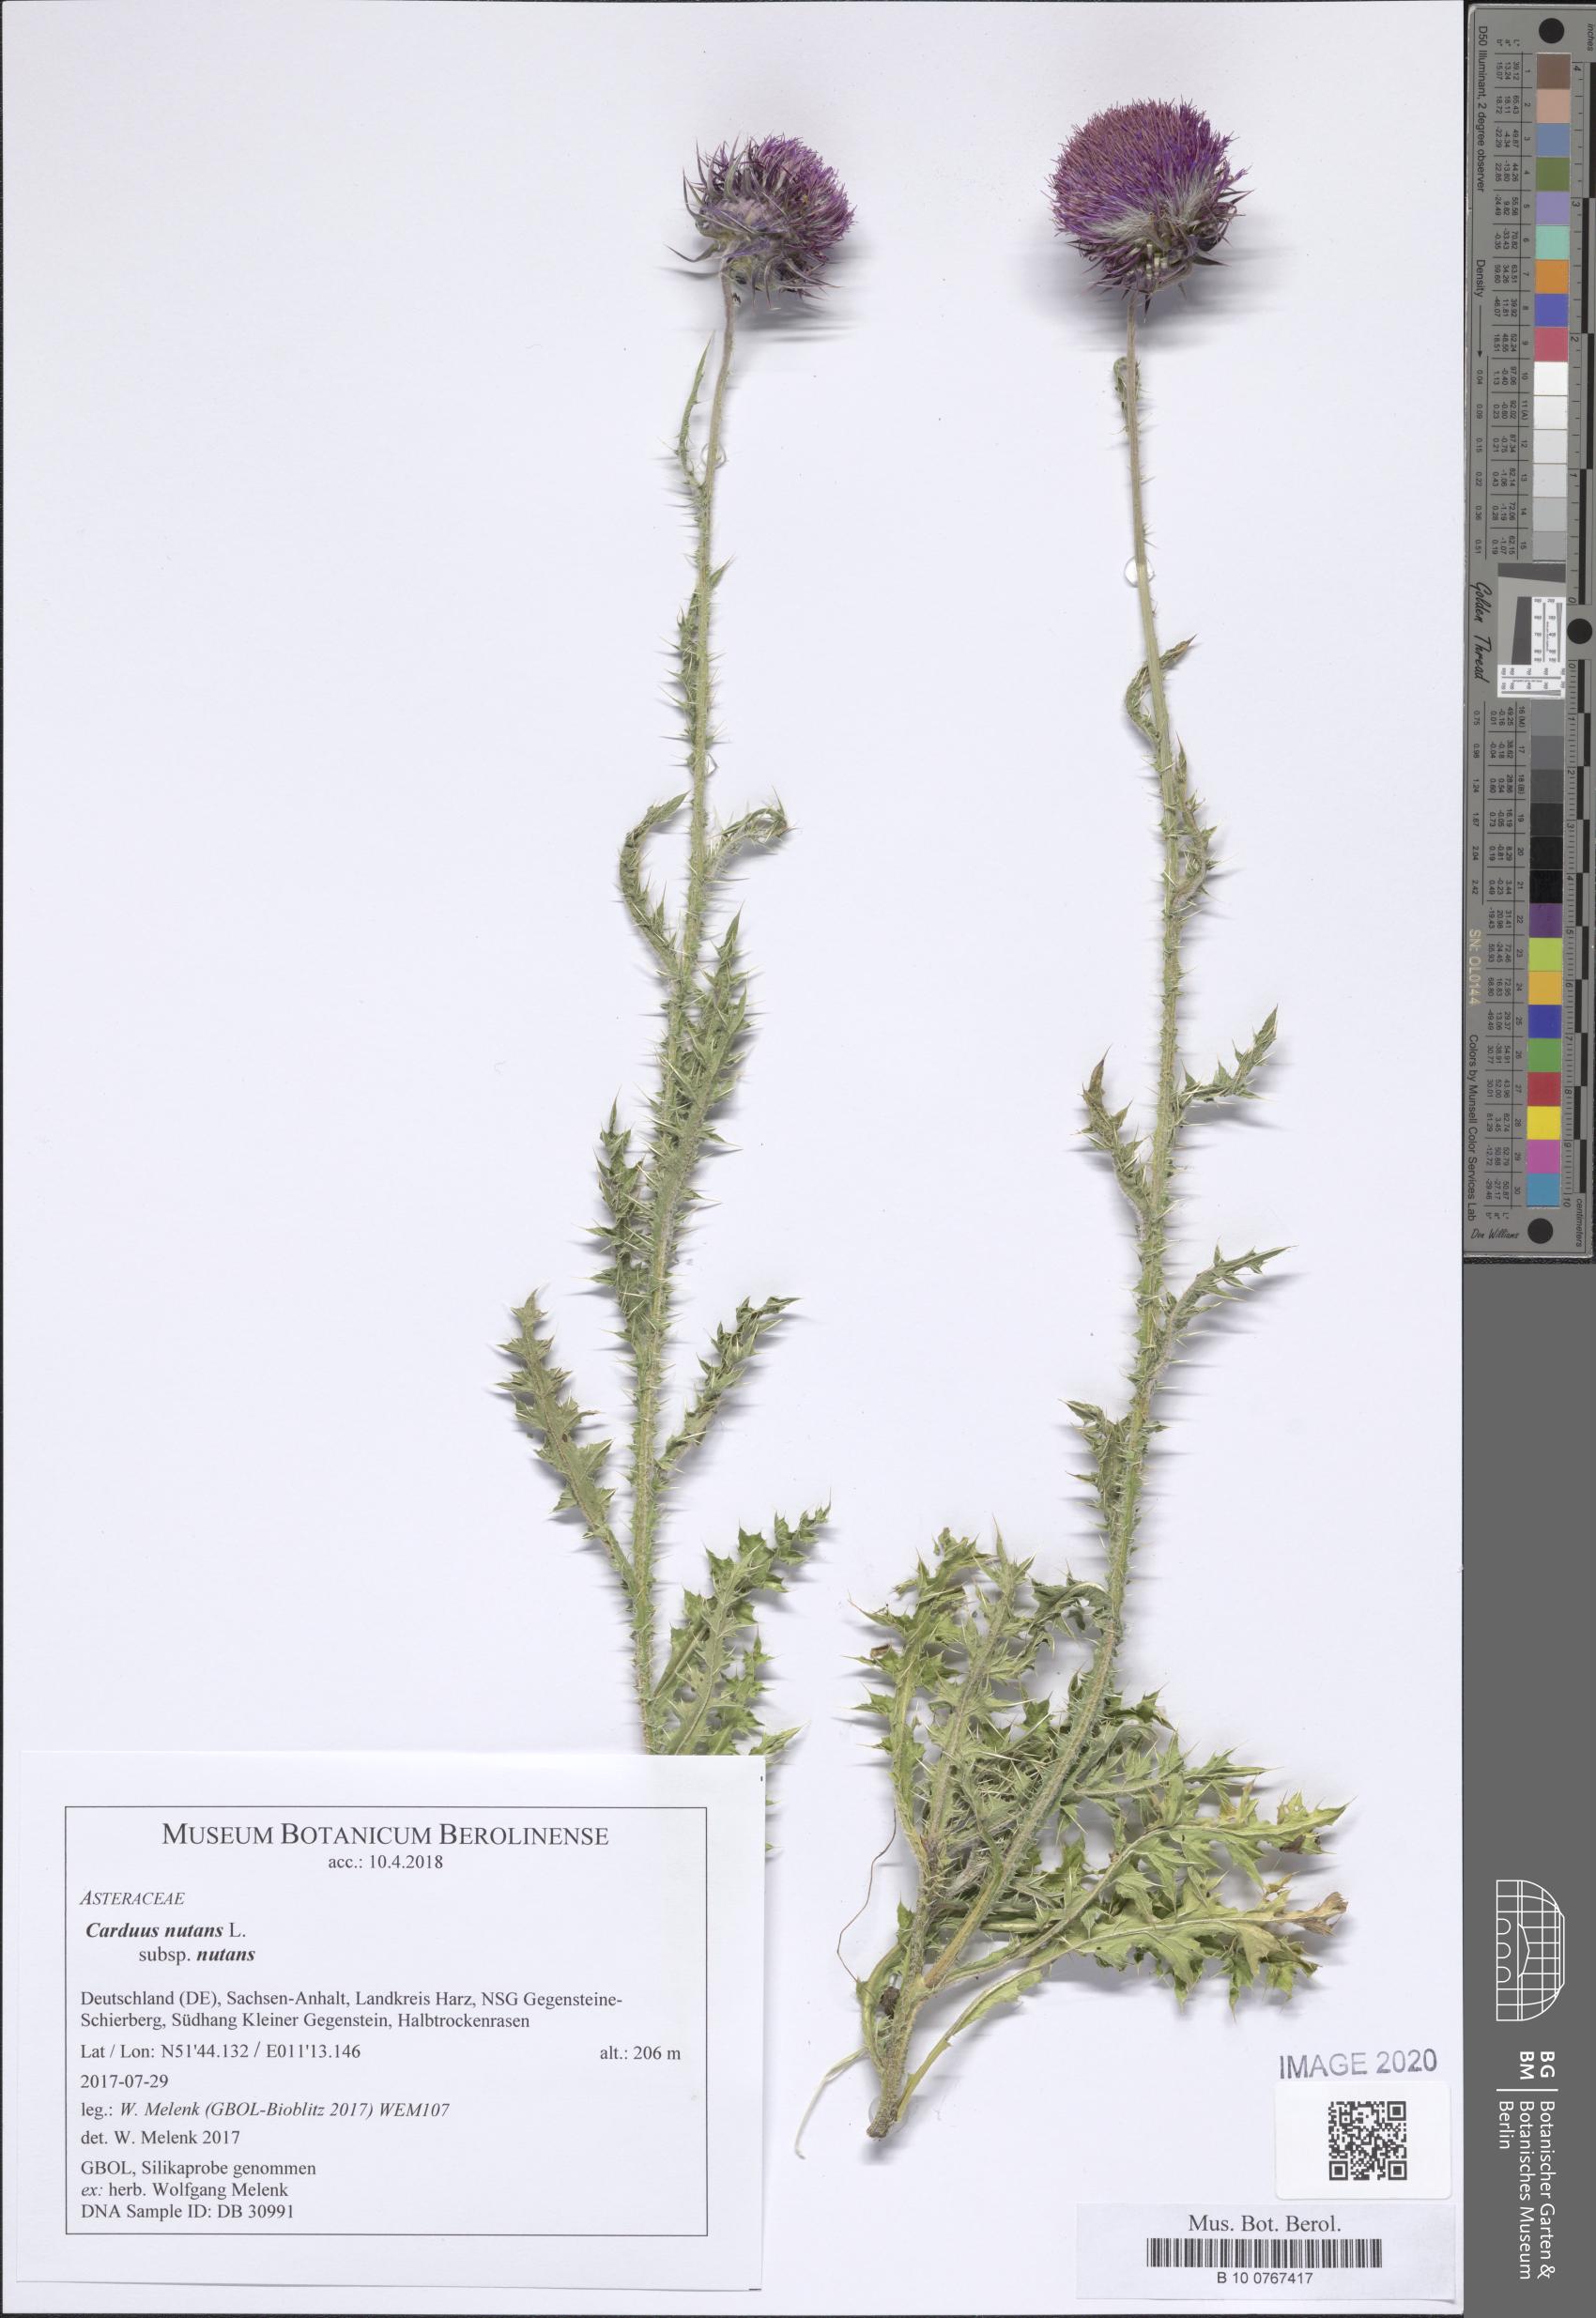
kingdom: Plantae
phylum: Tracheophyta
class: Magnoliopsida
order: Asterales
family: Asteraceae
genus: Carduus
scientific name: Carduus nutans
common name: Musk thistle
